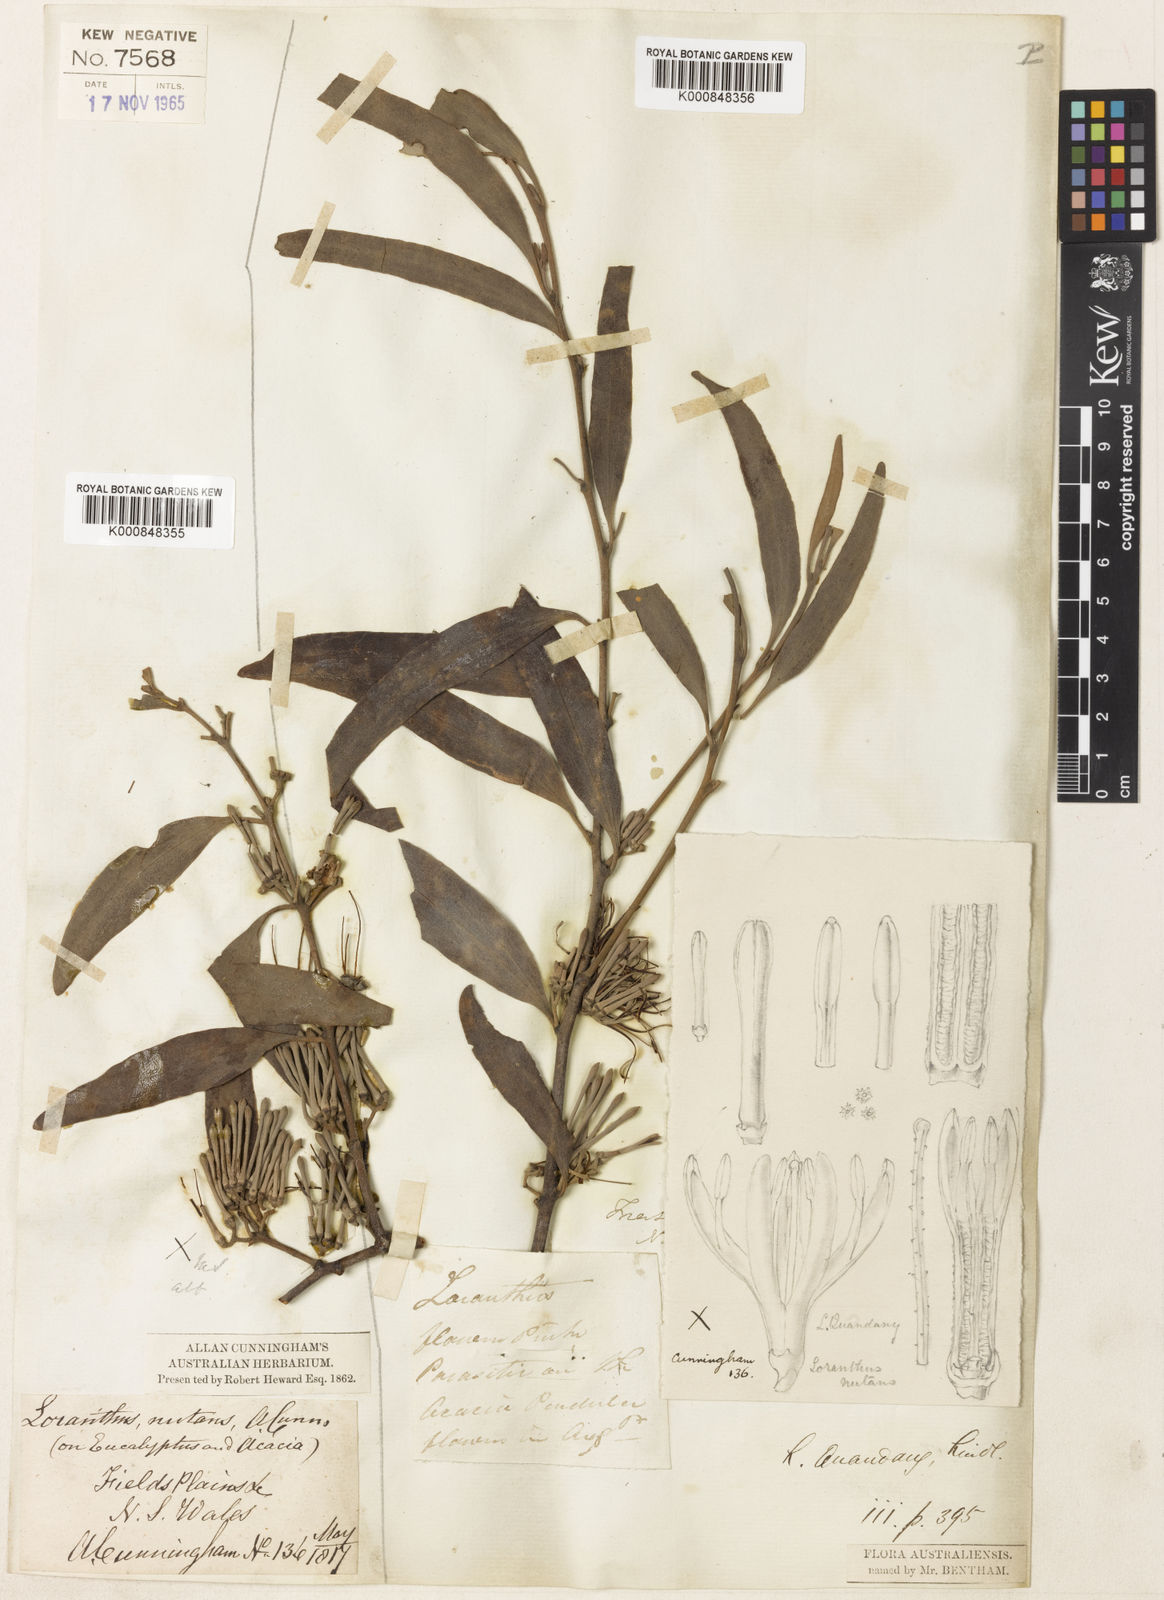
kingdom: Plantae
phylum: Tracheophyta
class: Magnoliopsida
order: Santalales
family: Loranthaceae
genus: Amyema
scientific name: Amyema quandang
